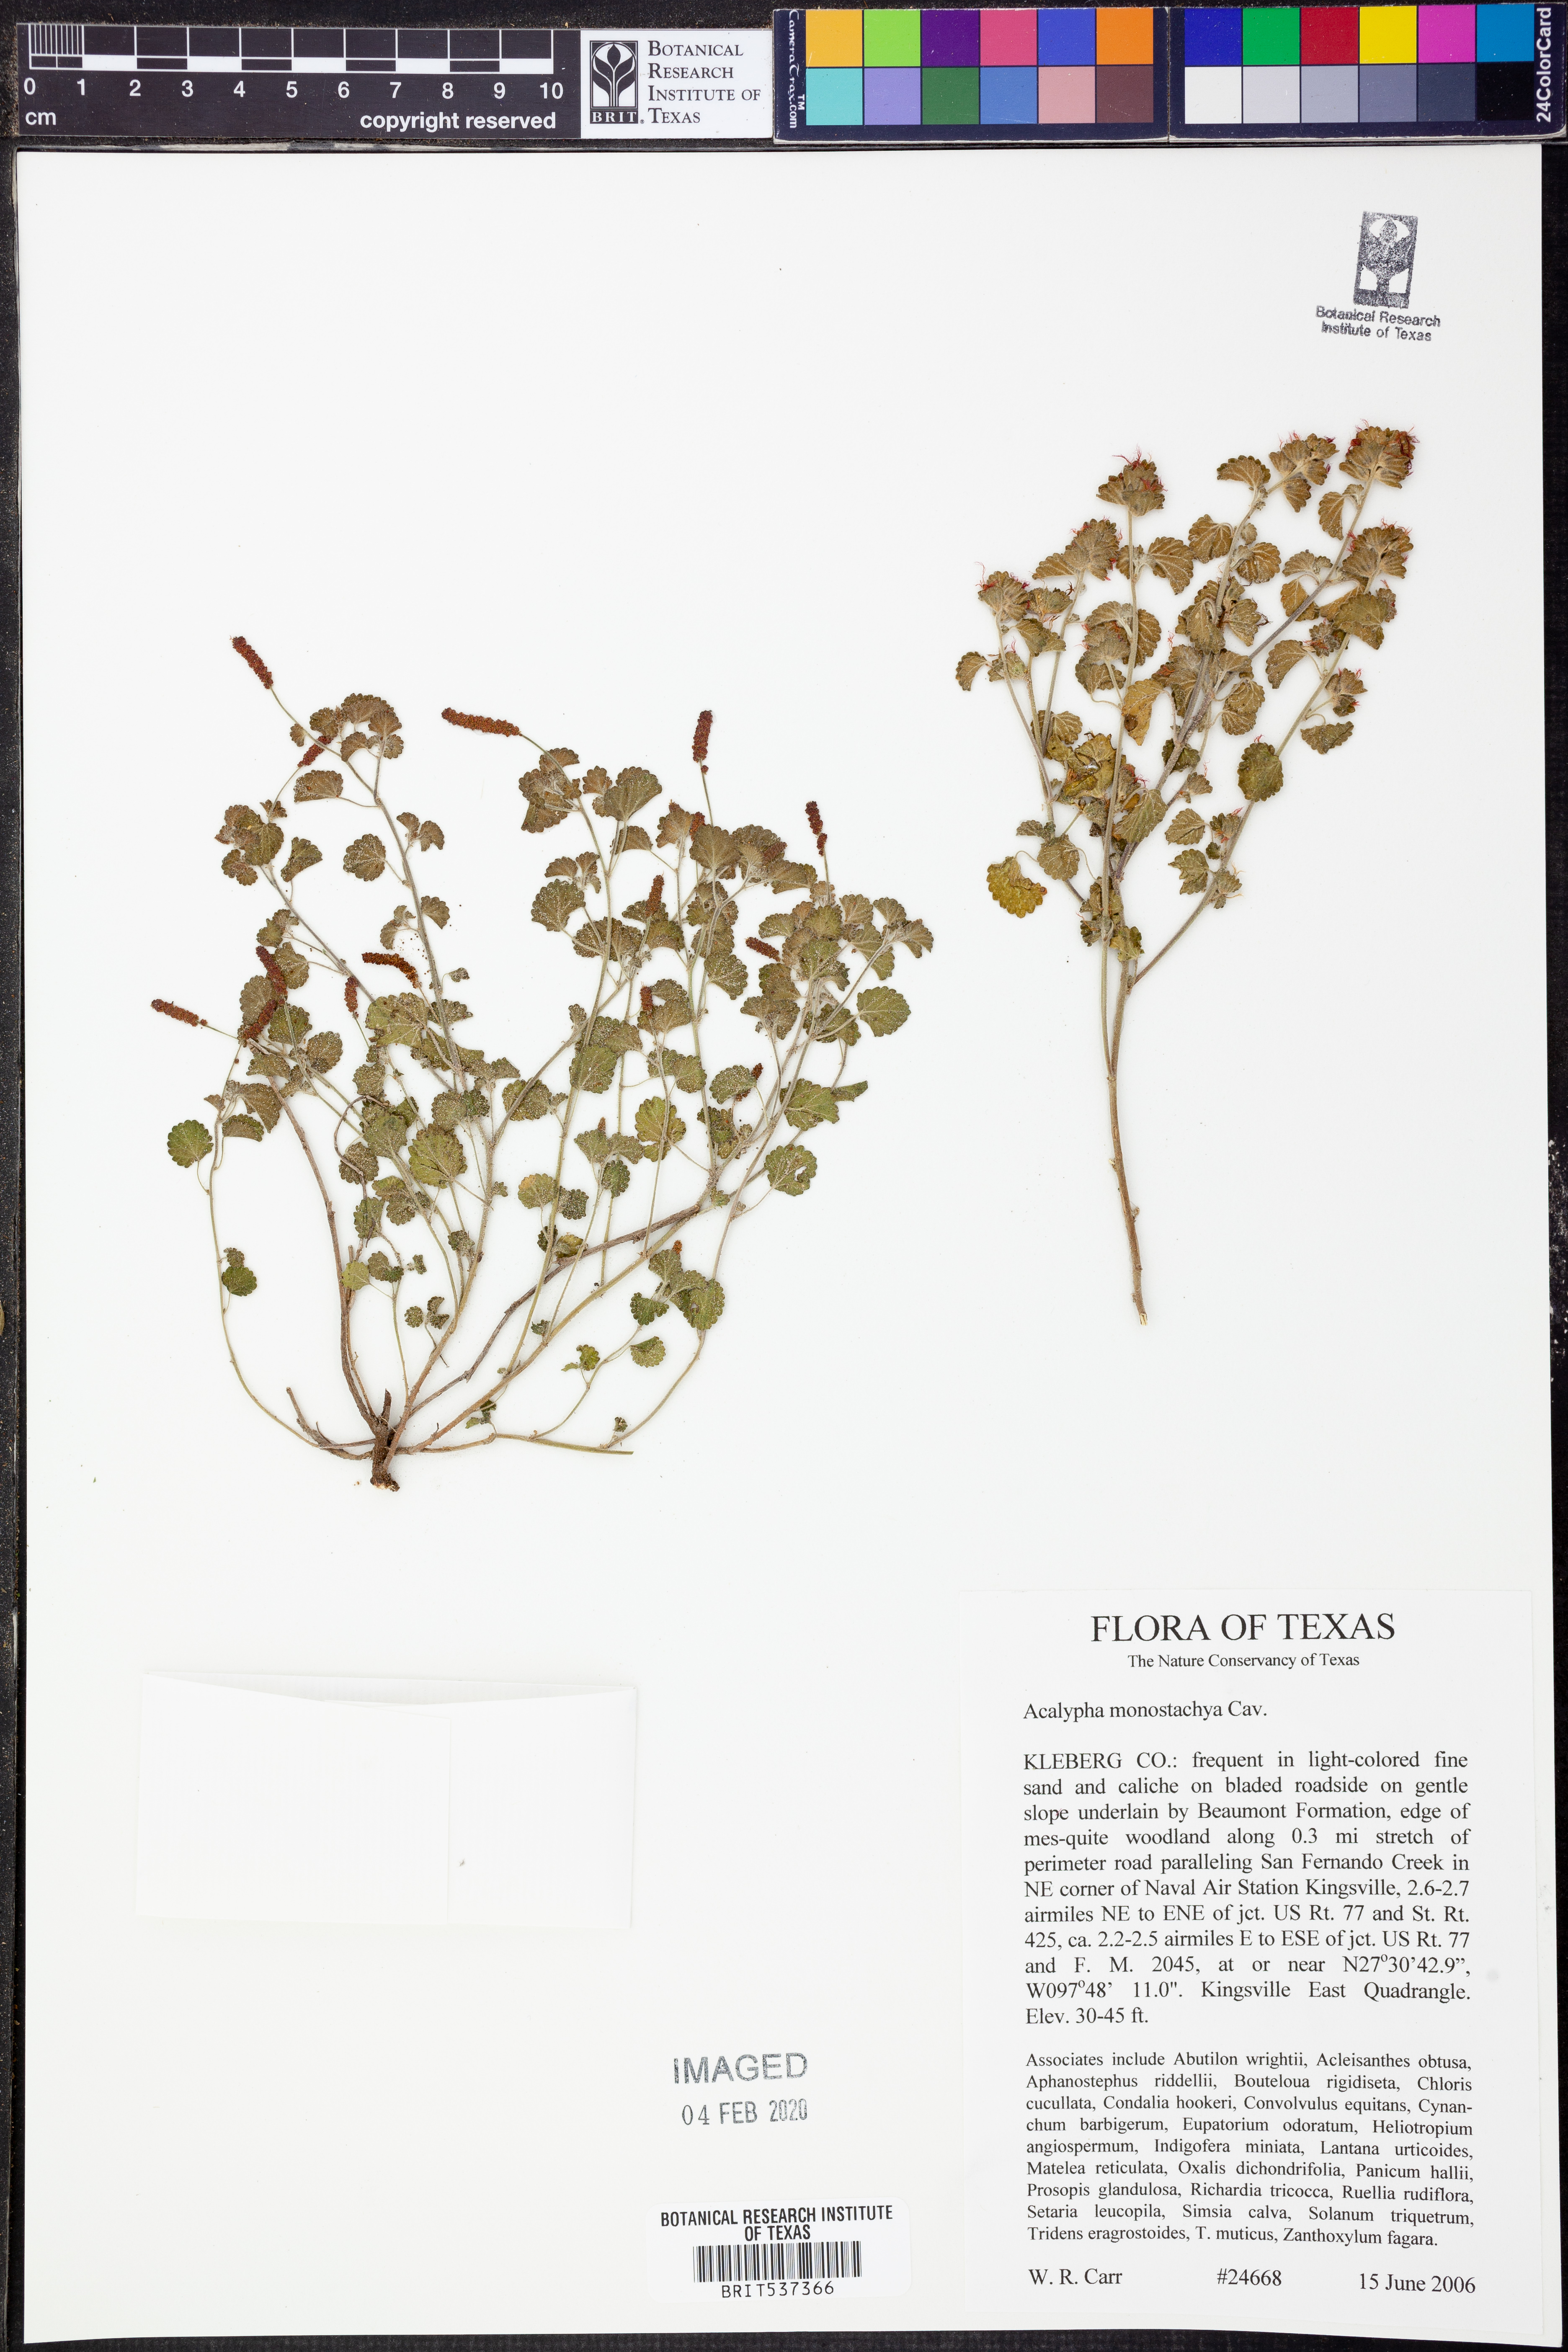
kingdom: Plantae
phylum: Tracheophyta
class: Magnoliopsida
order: Malpighiales
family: Euphorbiaceae
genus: Acalypha
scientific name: Acalypha monostachya
